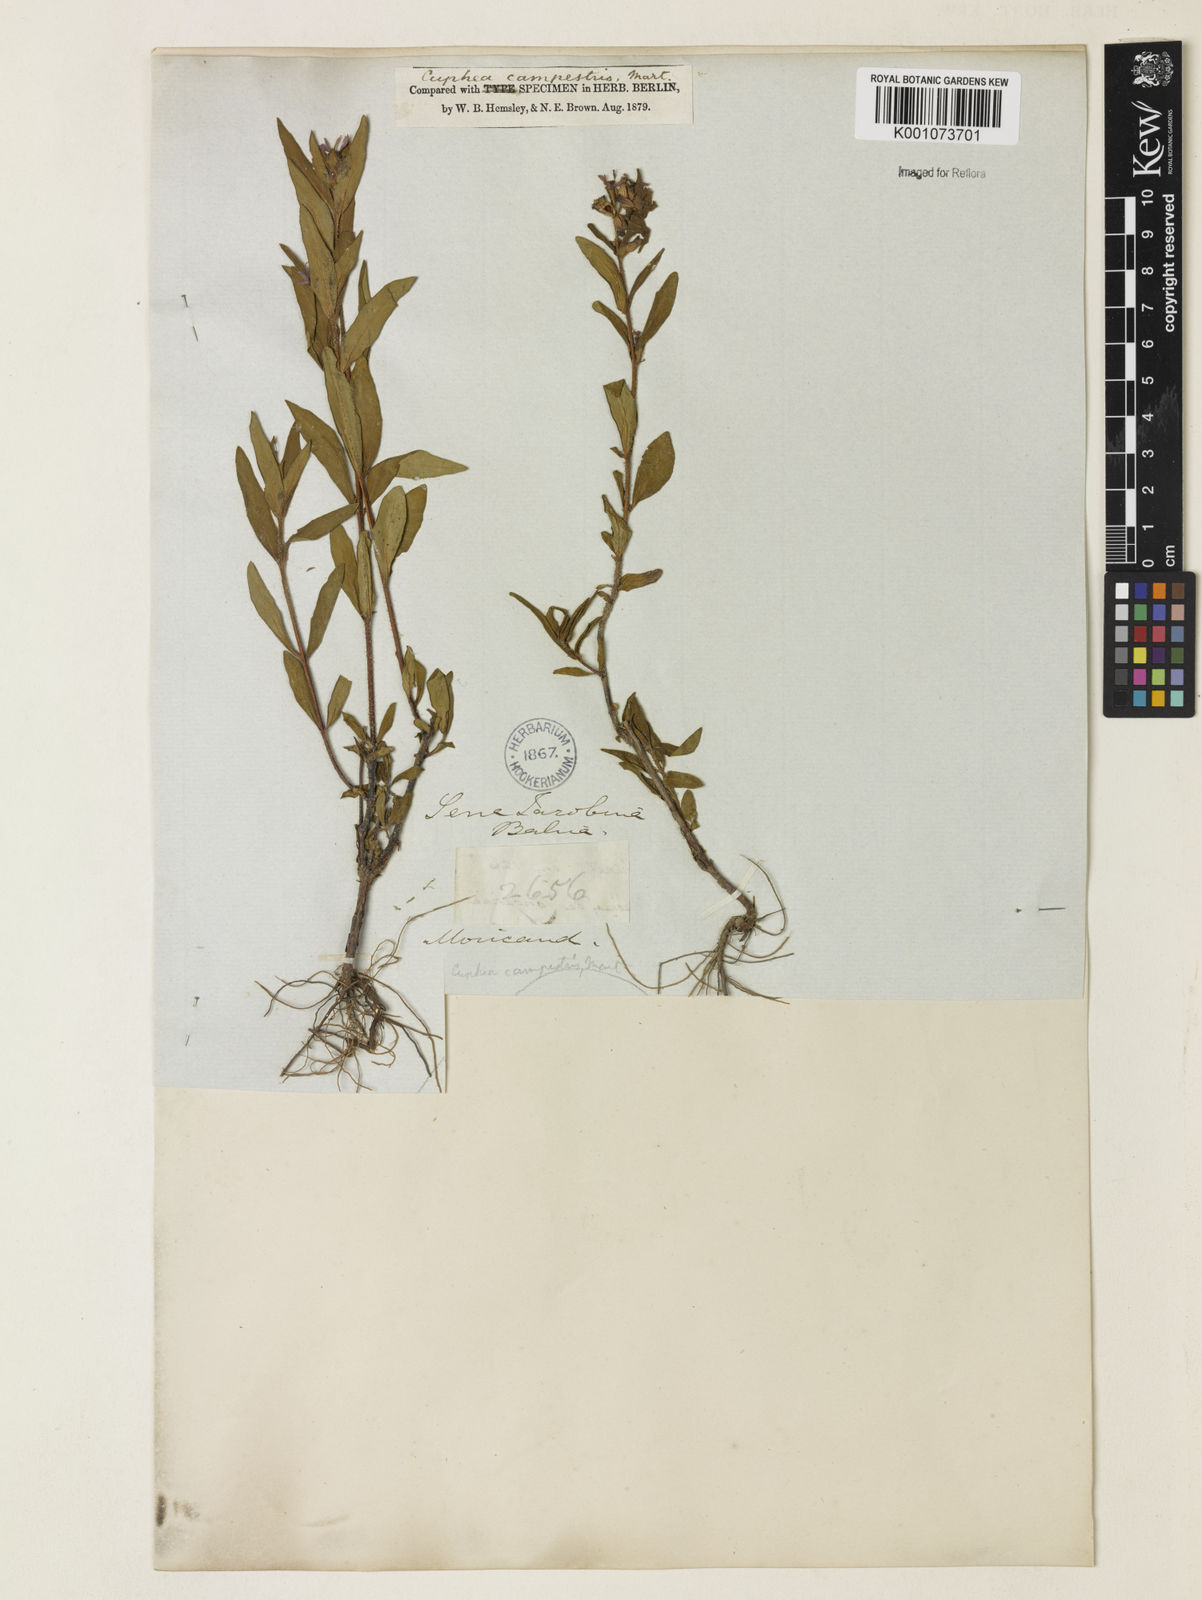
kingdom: Plantae
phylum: Tracheophyta
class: Magnoliopsida
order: Myrtales
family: Lythraceae
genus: Cuphea
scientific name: Cuphea campestris
